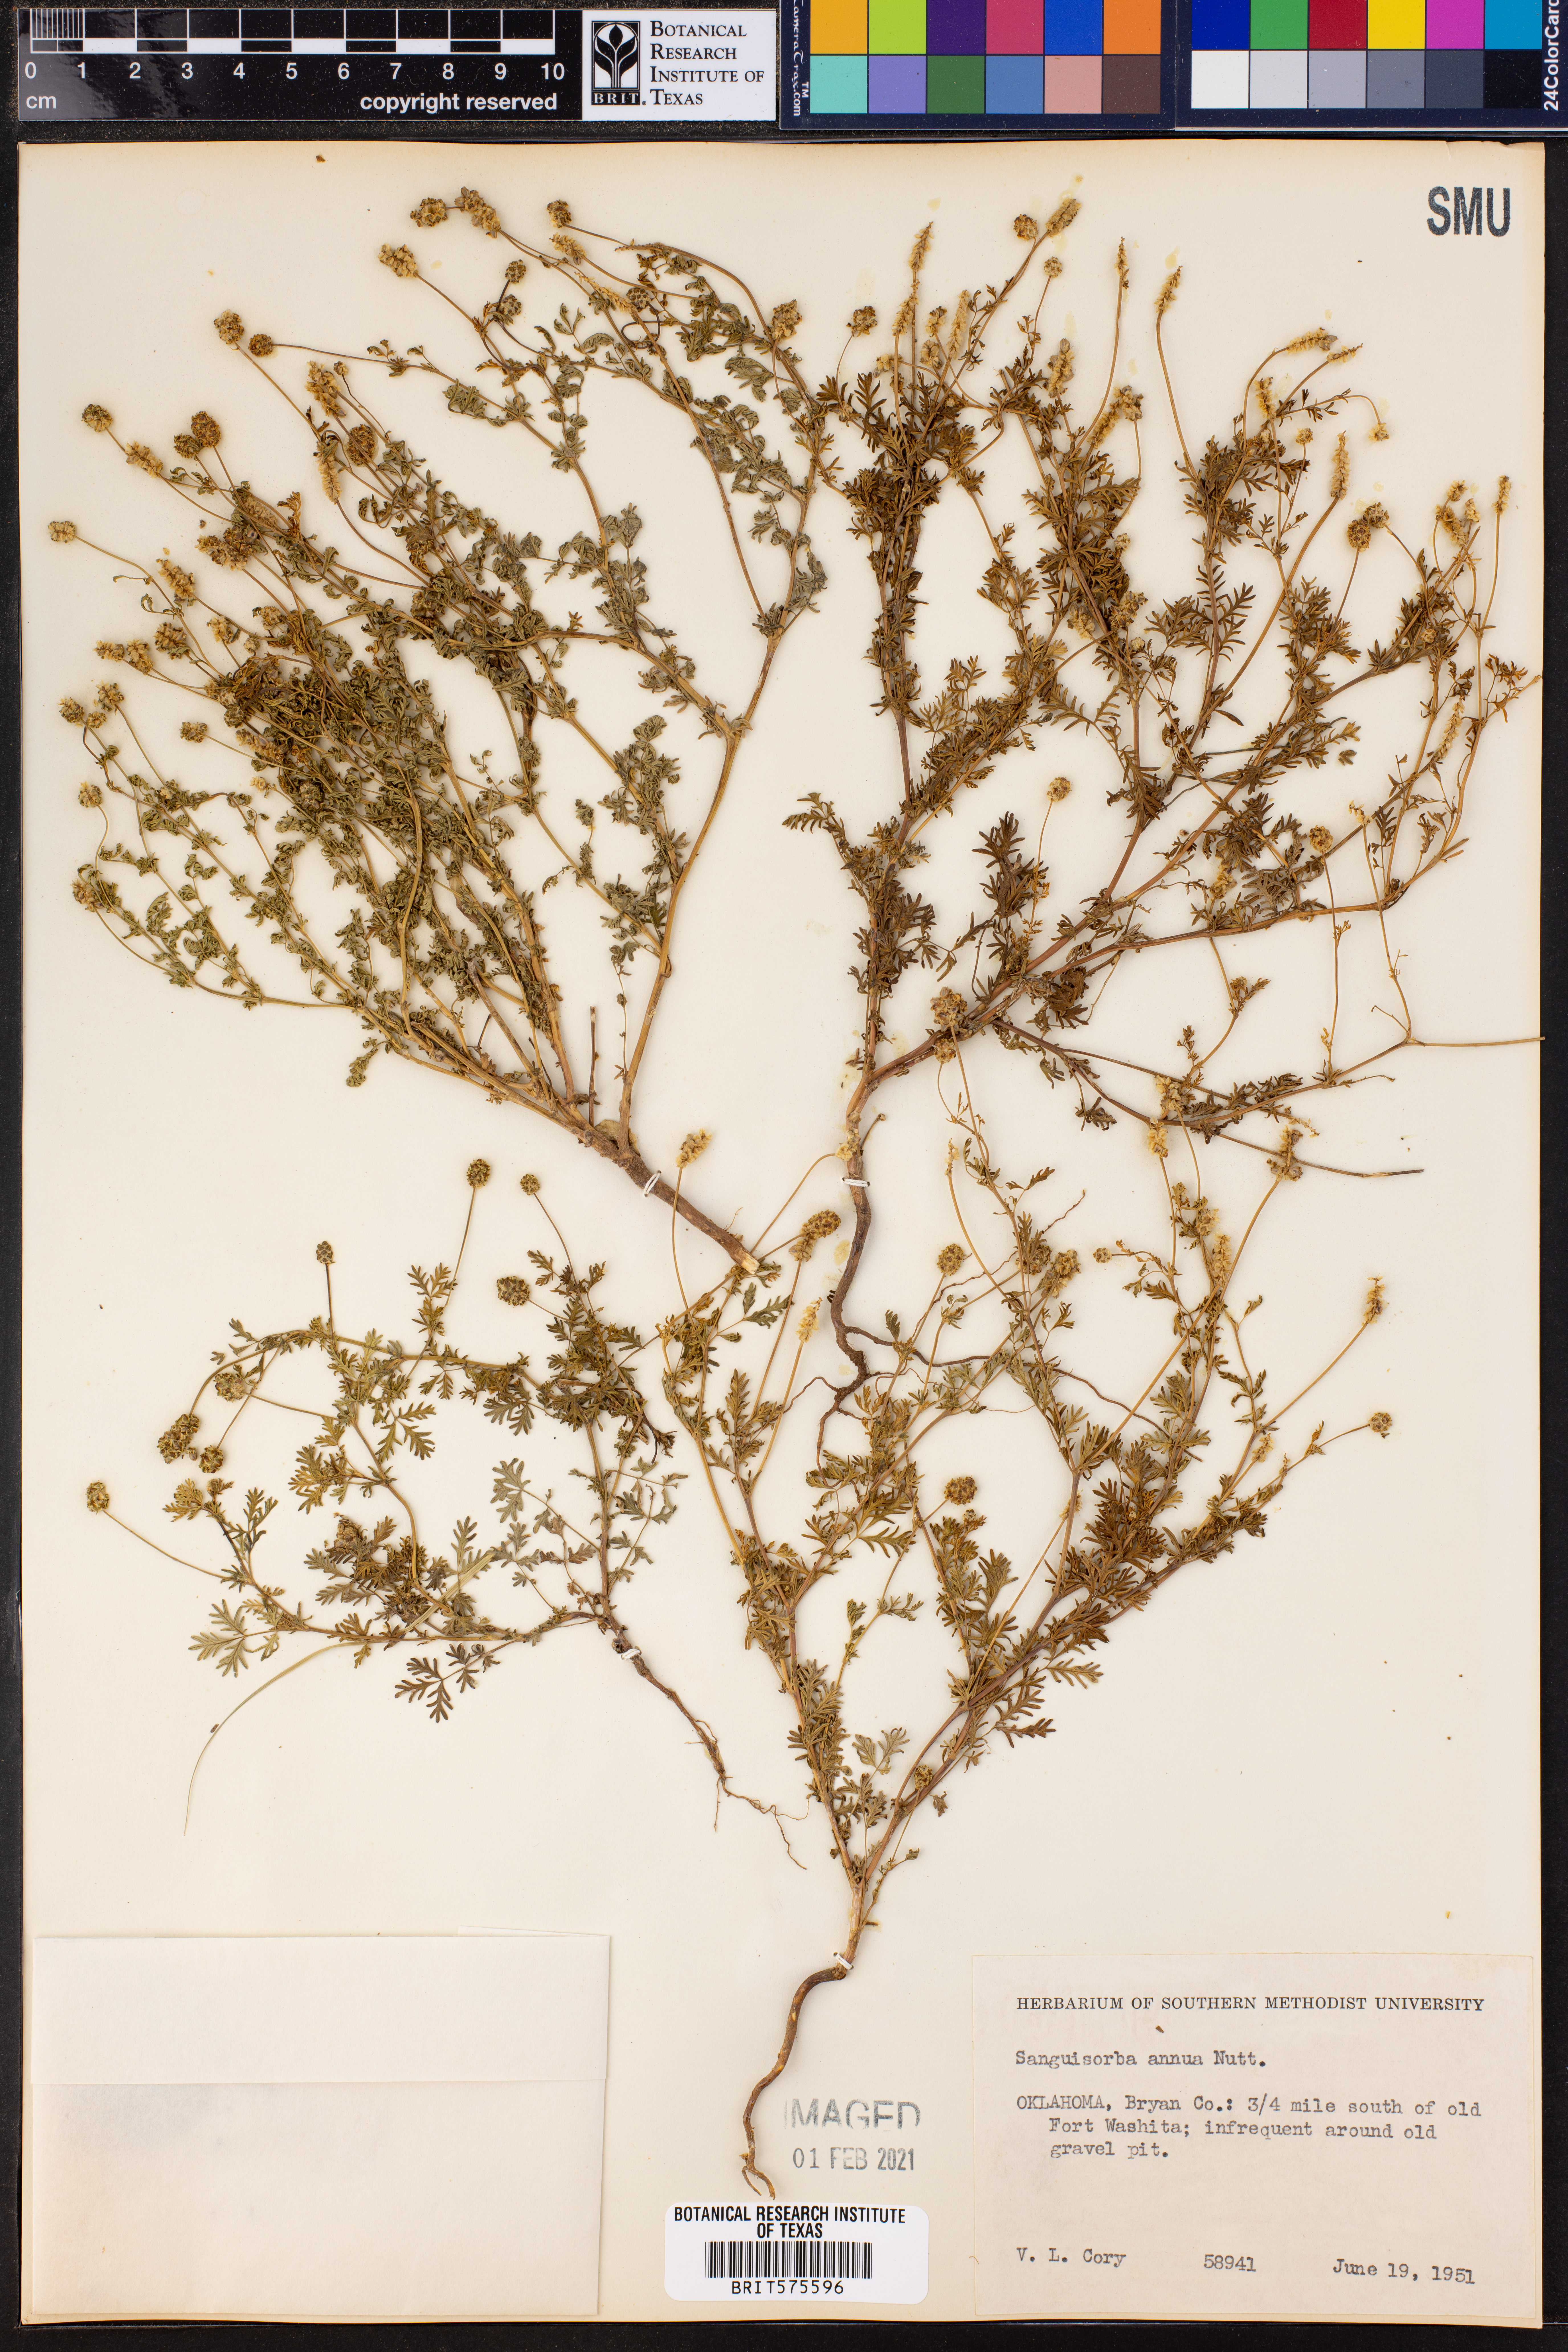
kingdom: Plantae
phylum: Tracheophyta
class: Magnoliopsida
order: Rosales
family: Rosaceae
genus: Poteridium
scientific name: Poteridium annuum
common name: Annual burnet
